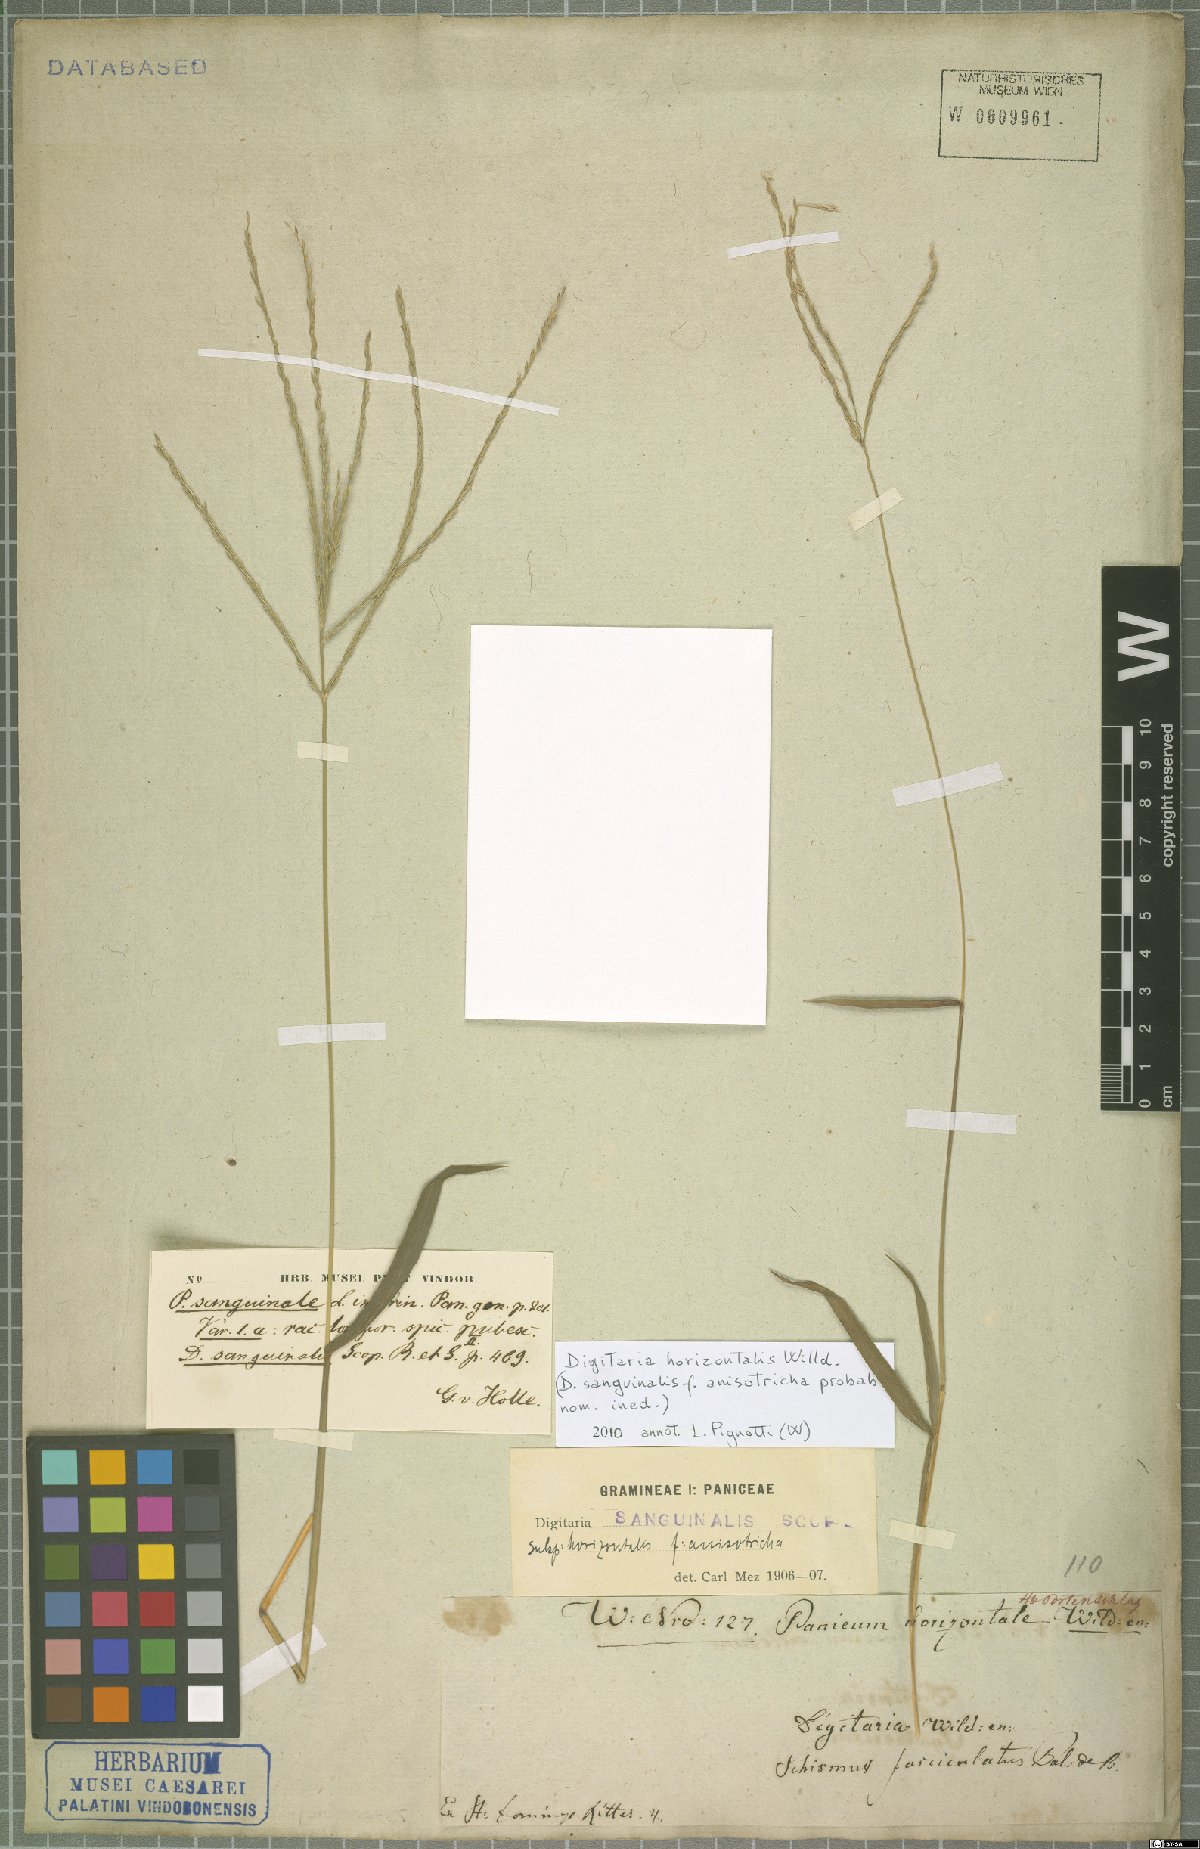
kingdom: Plantae
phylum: Tracheophyta
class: Liliopsida
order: Poales
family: Poaceae
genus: Digitaria
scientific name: Digitaria horizontalis
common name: Jamaican crabgrass
